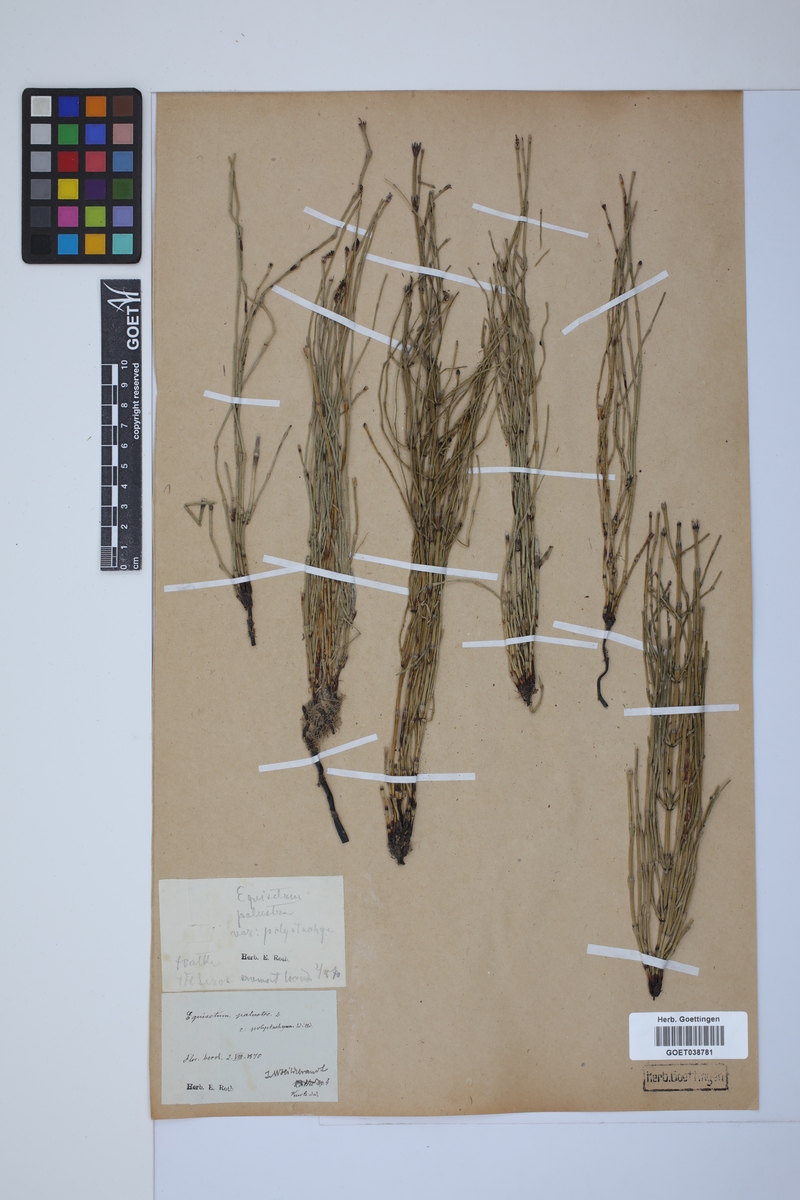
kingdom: Plantae
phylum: Tracheophyta
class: Polypodiopsida
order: Equisetales
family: Equisetaceae
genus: Equisetum
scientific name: Equisetum palustre
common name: Marsh horsetail
